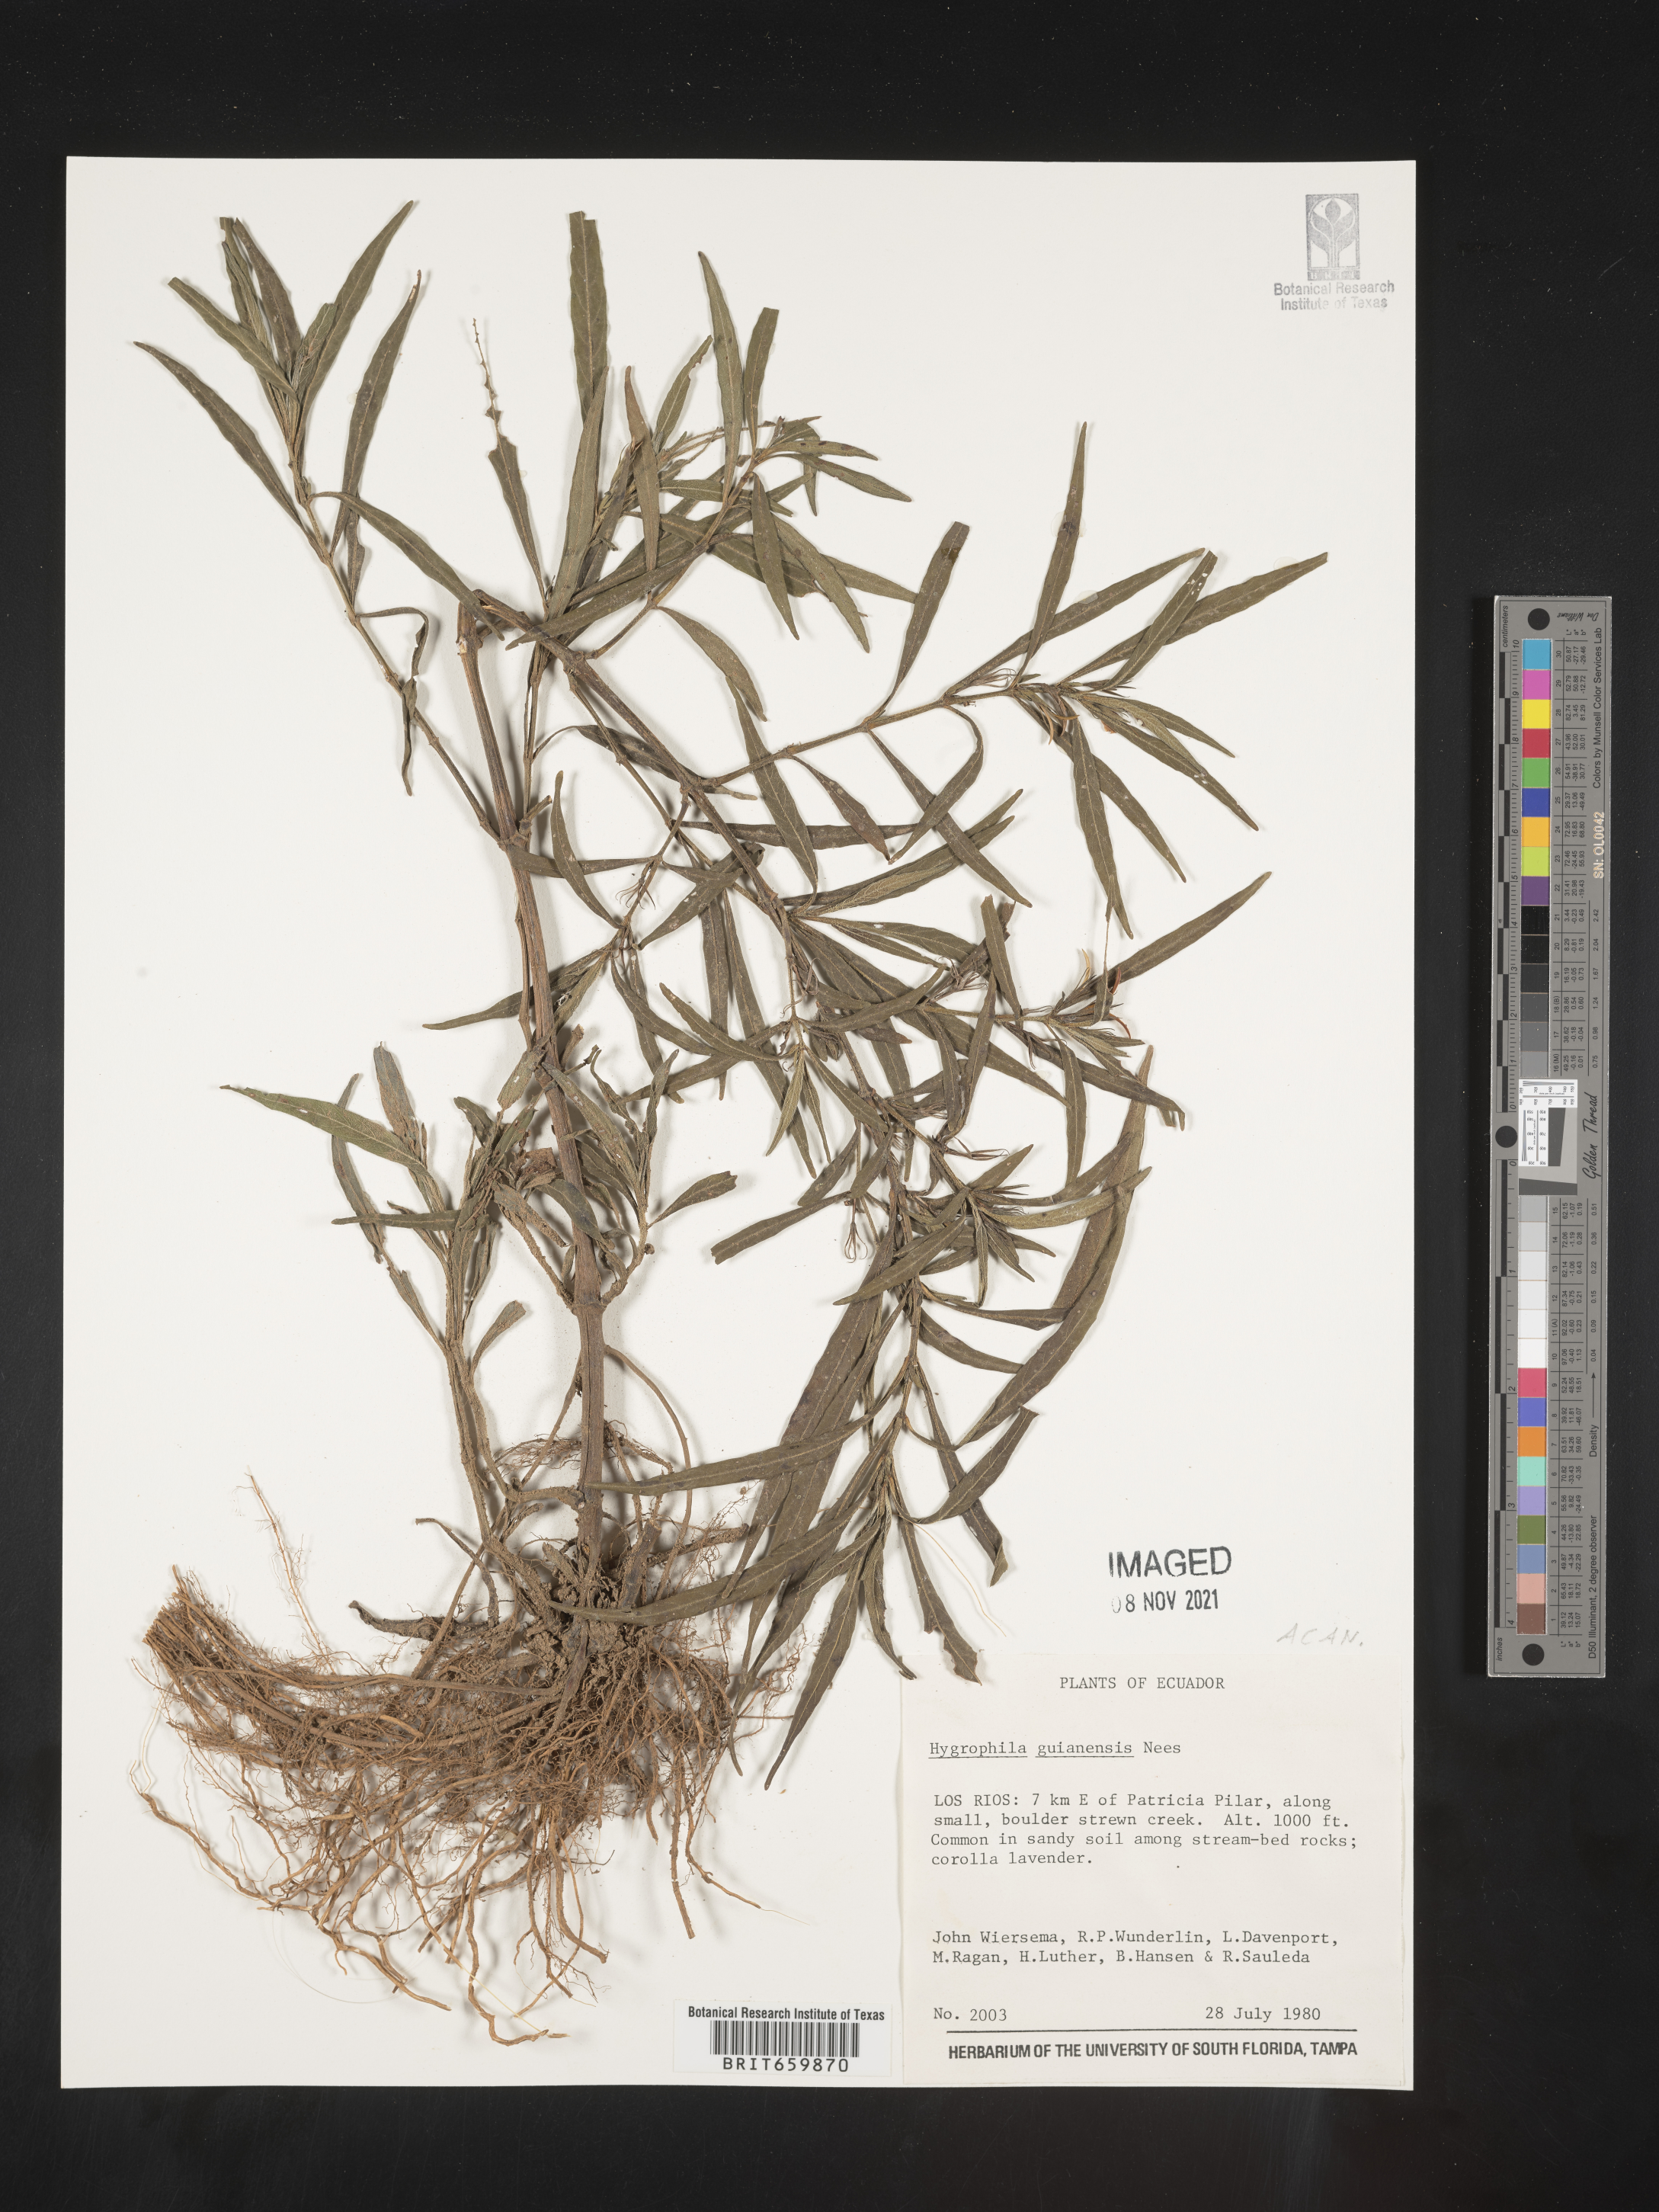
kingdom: Plantae
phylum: Tracheophyta
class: Magnoliopsida
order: Lamiales
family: Acanthaceae
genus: Hygrophila
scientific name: Hygrophila
